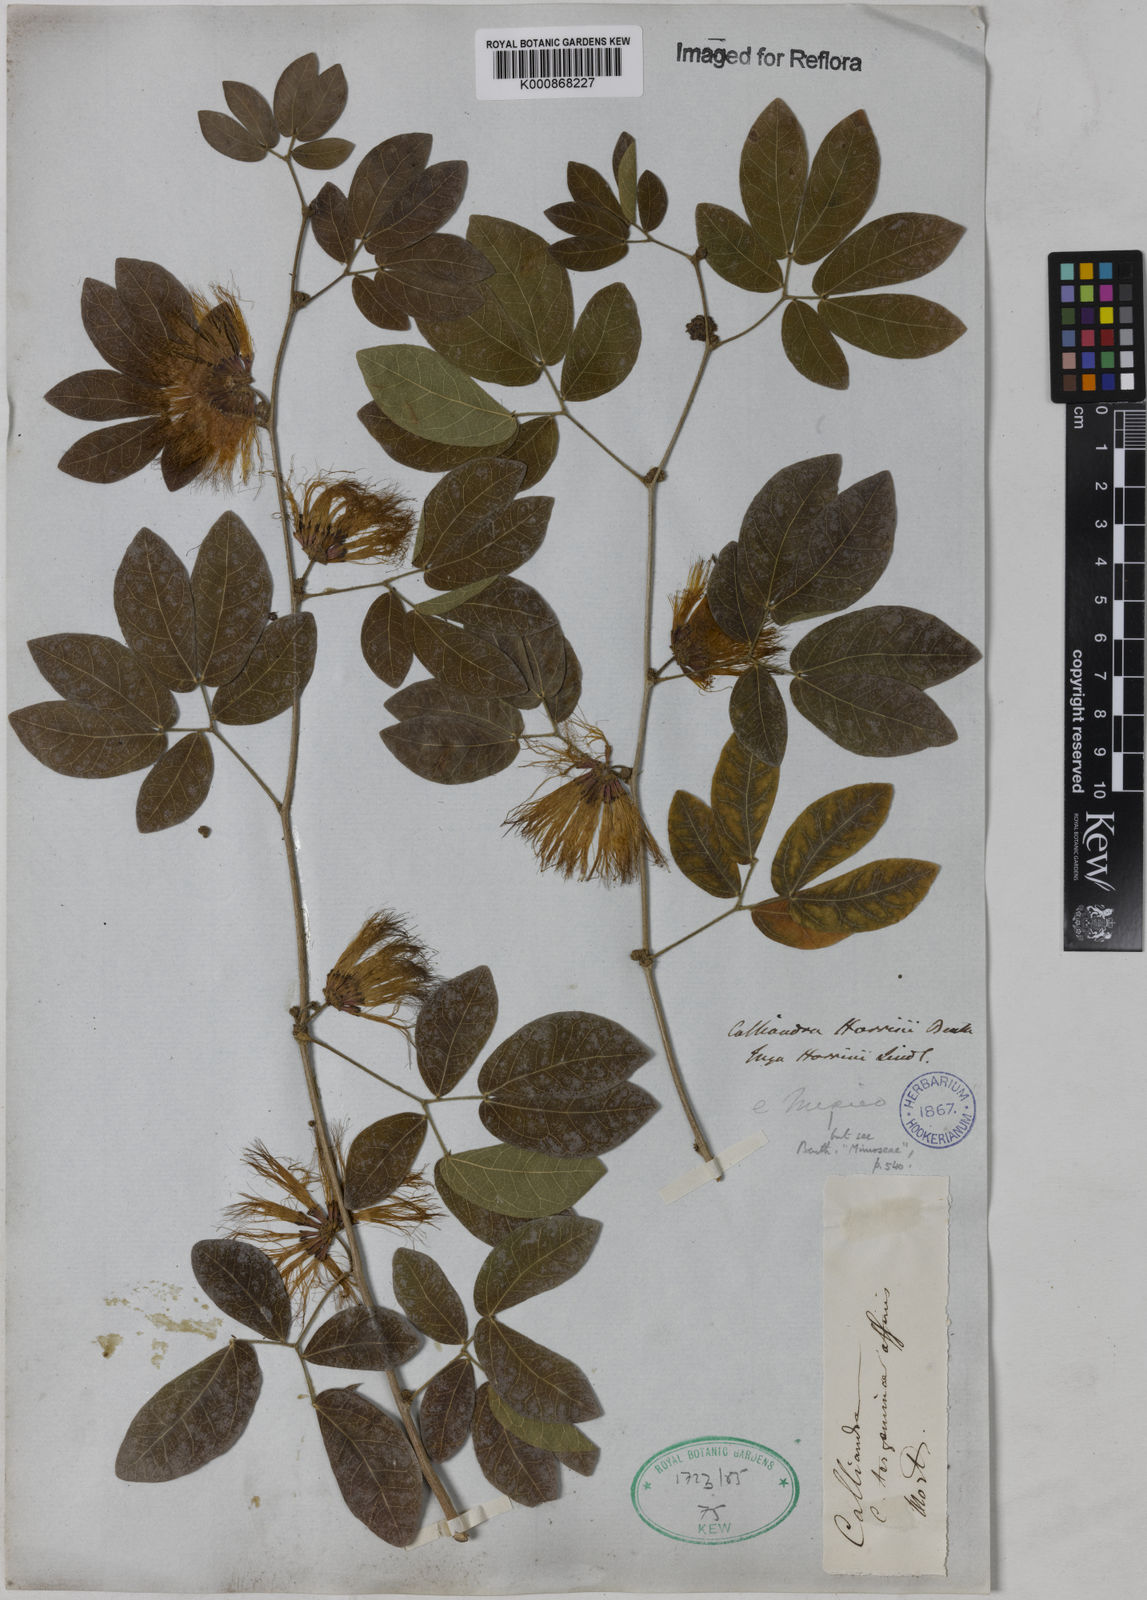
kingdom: Plantae
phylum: Tracheophyta
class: Magnoliopsida
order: Fabales
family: Fabaceae
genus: Calliandra
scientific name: Calliandra harrisii
